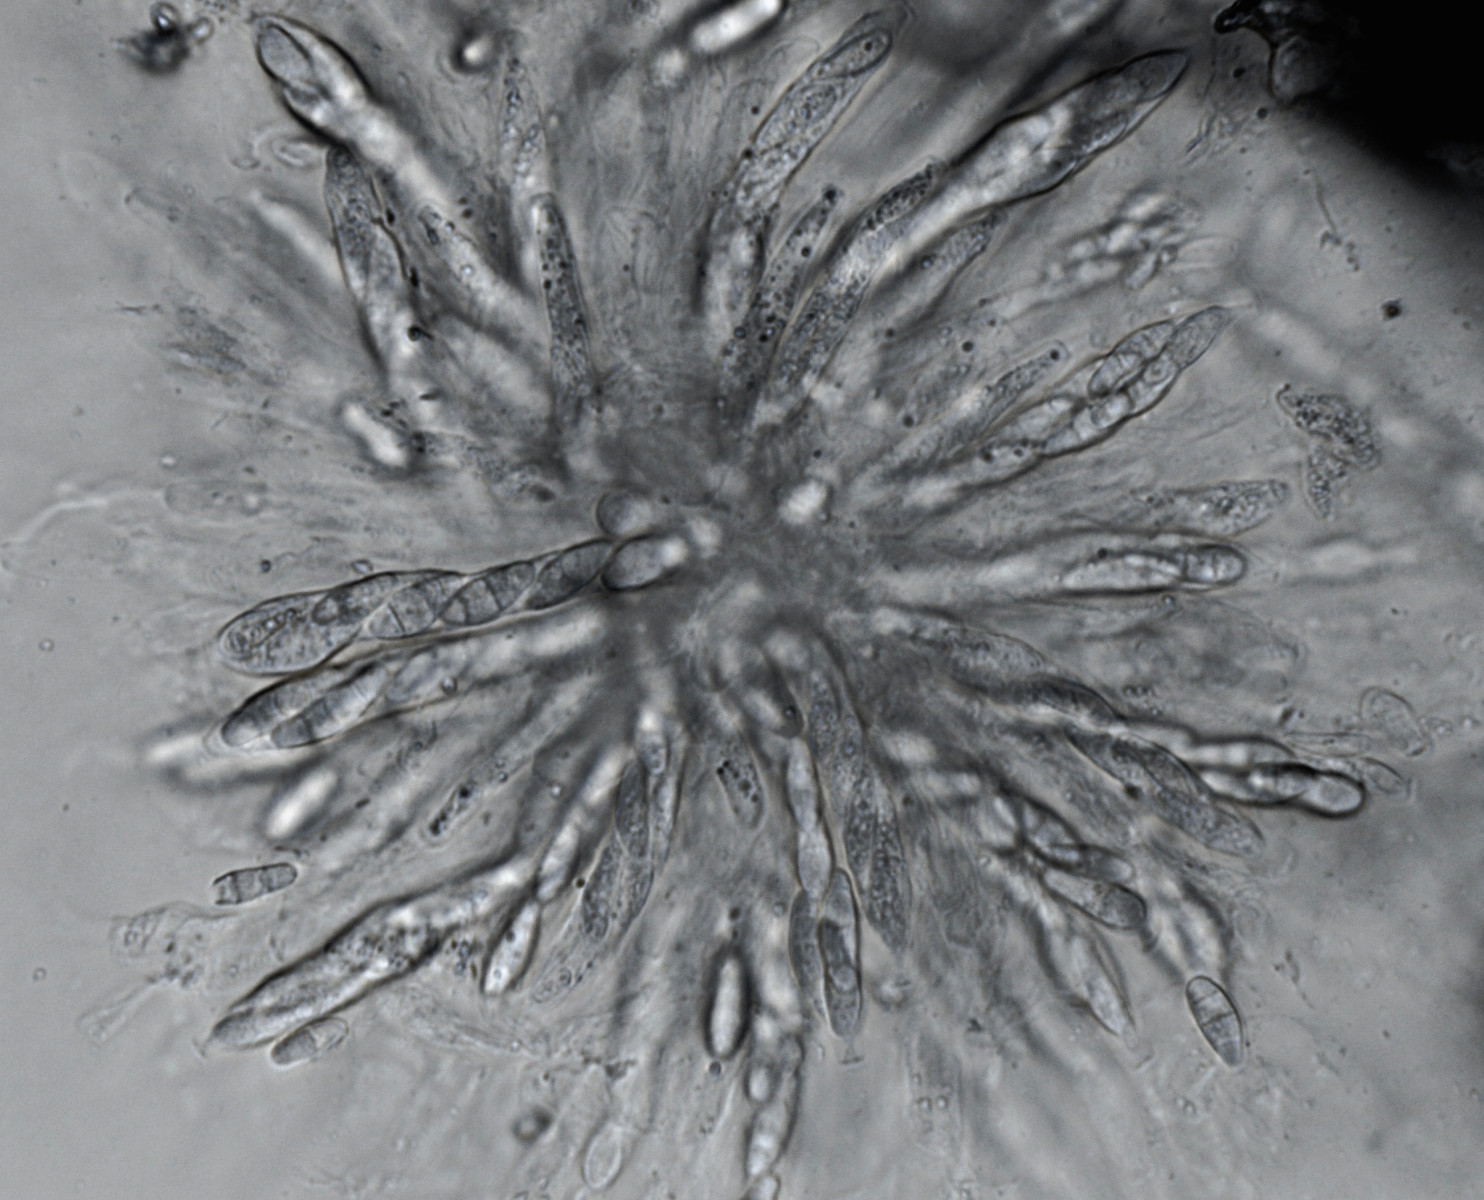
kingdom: Fungi
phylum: Ascomycota
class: Sordariomycetes
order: Hypocreales
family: Nectriaceae
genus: Fusarium
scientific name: Fusarium roseum
